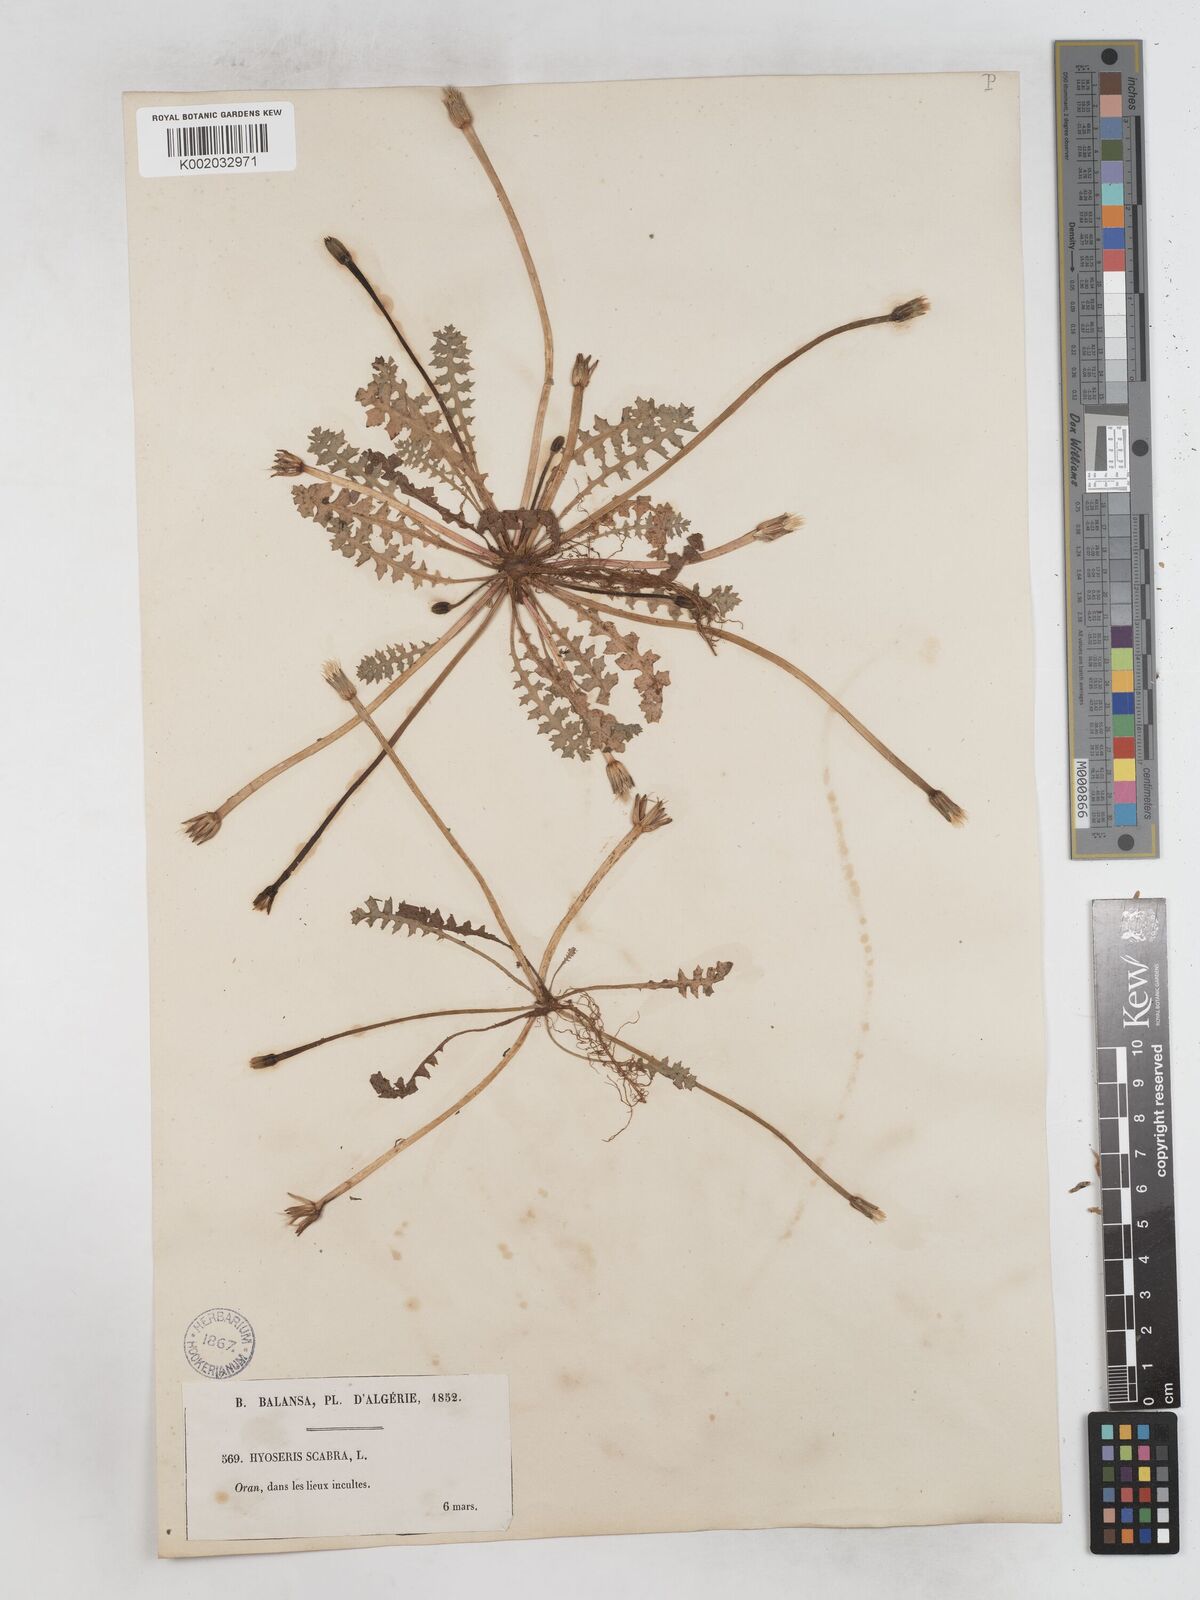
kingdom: Plantae
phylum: Tracheophyta
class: Magnoliopsida
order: Asterales
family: Asteraceae
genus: Hyoseris
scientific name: Hyoseris scabra
